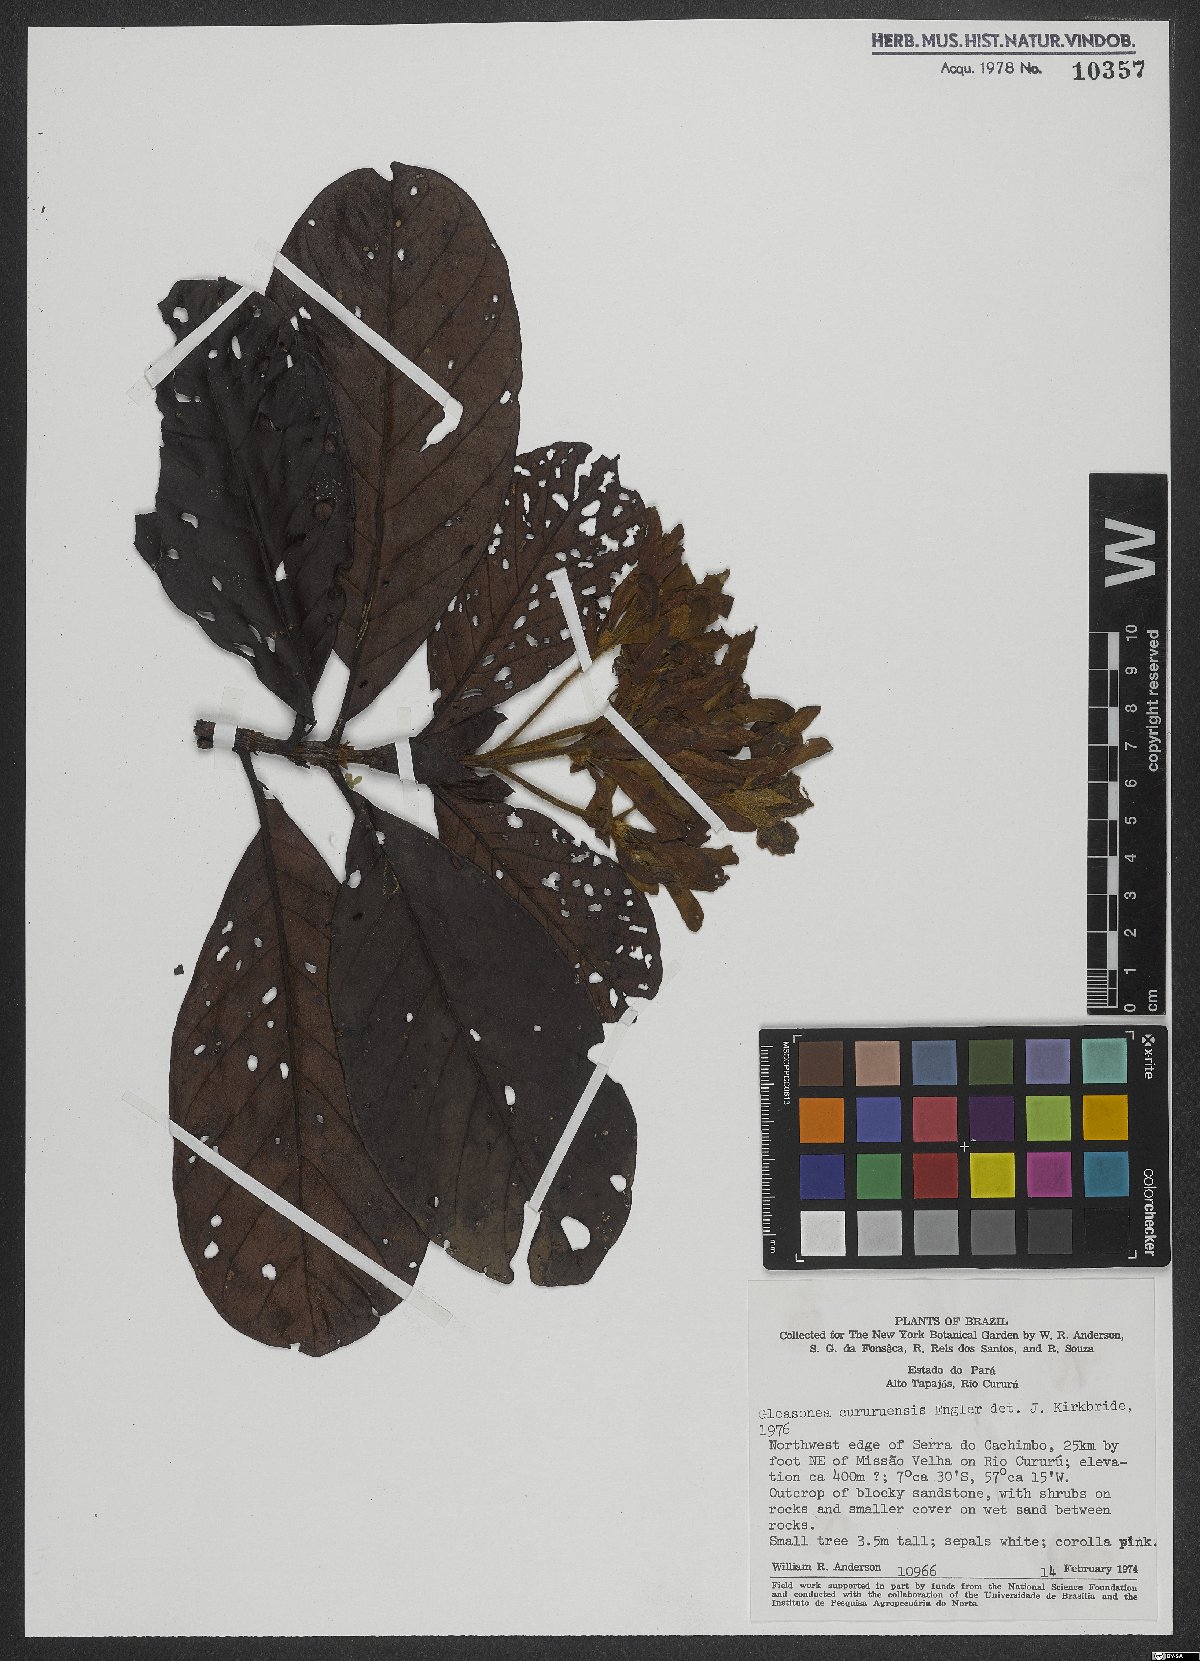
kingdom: Plantae
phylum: Tracheophyta
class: Magnoliopsida
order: Gentianales
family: Rubiaceae
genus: Gleasonia
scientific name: Gleasonia cururuensis
